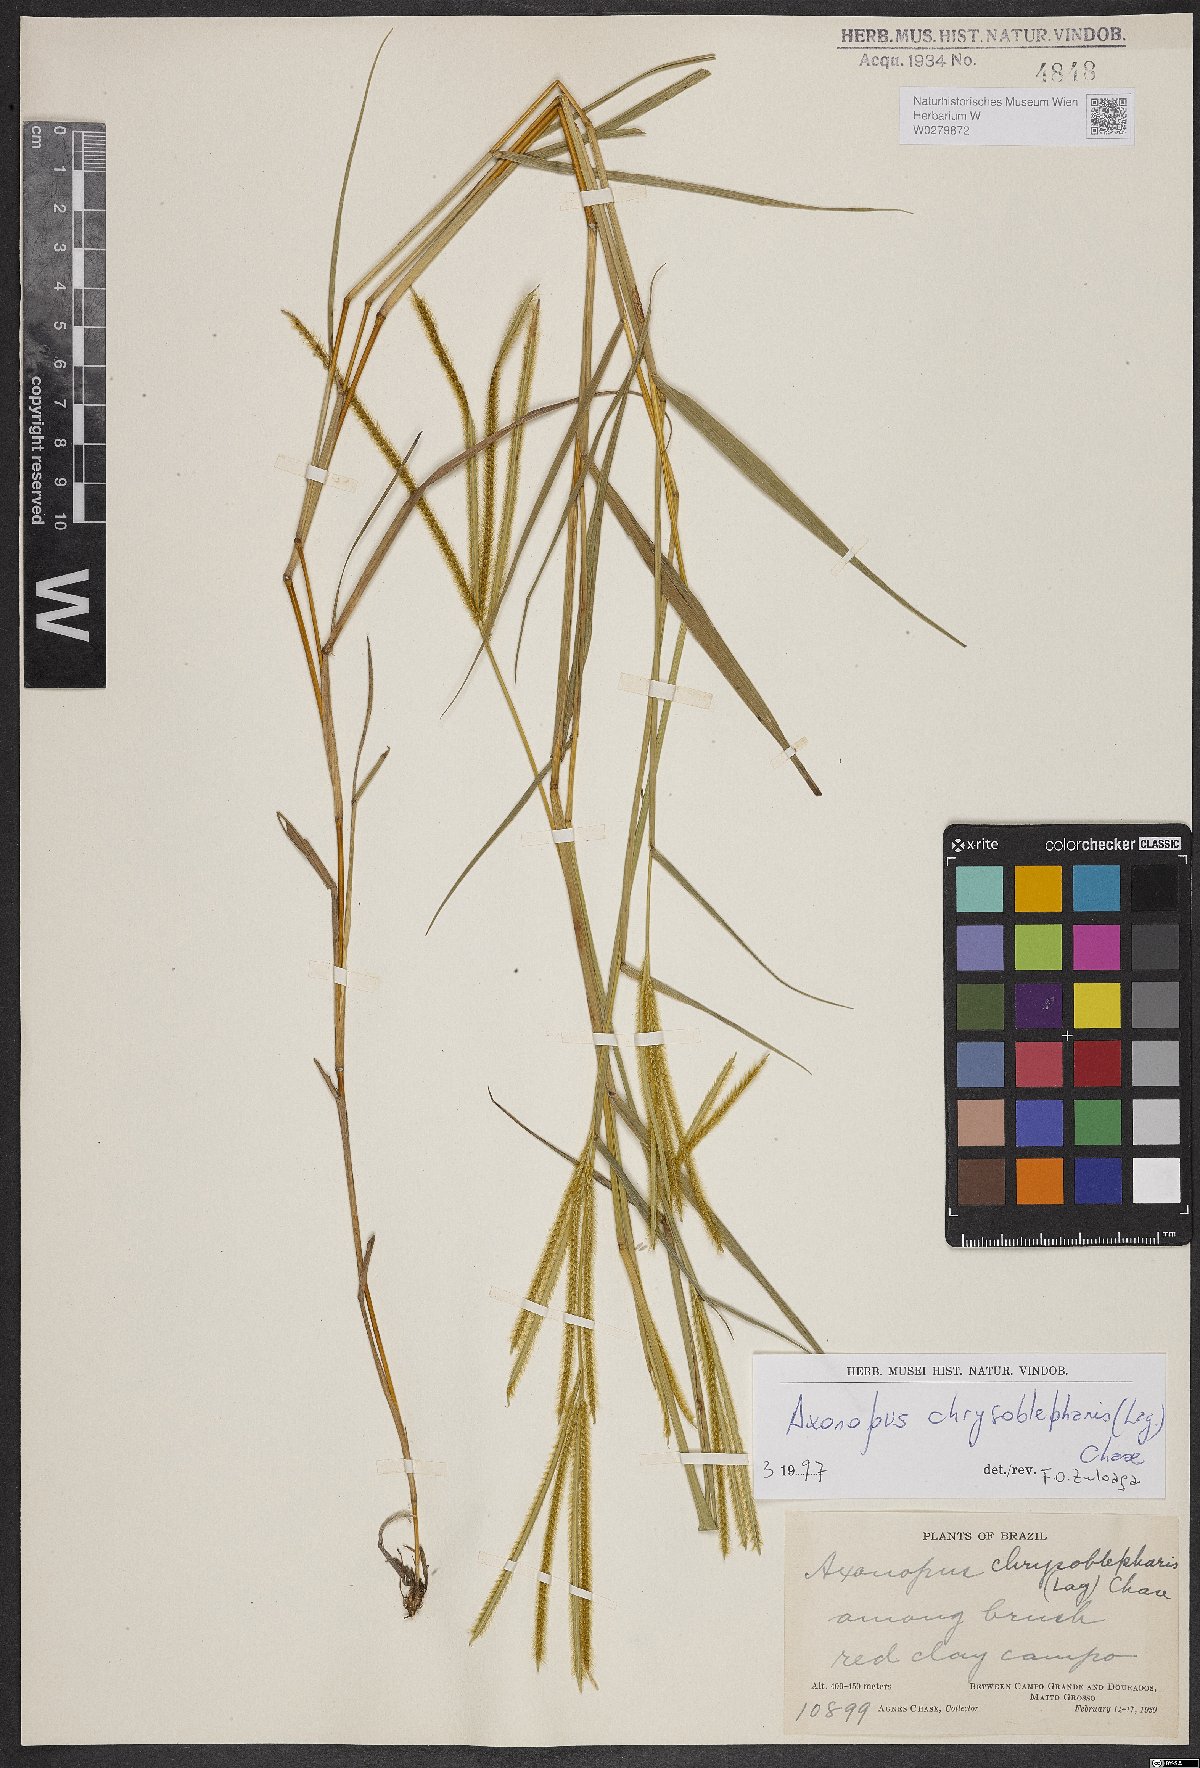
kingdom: Plantae
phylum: Tracheophyta
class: Liliopsida
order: Poales
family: Poaceae
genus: Axonopus
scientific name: Axonopus chrysoblepharis
